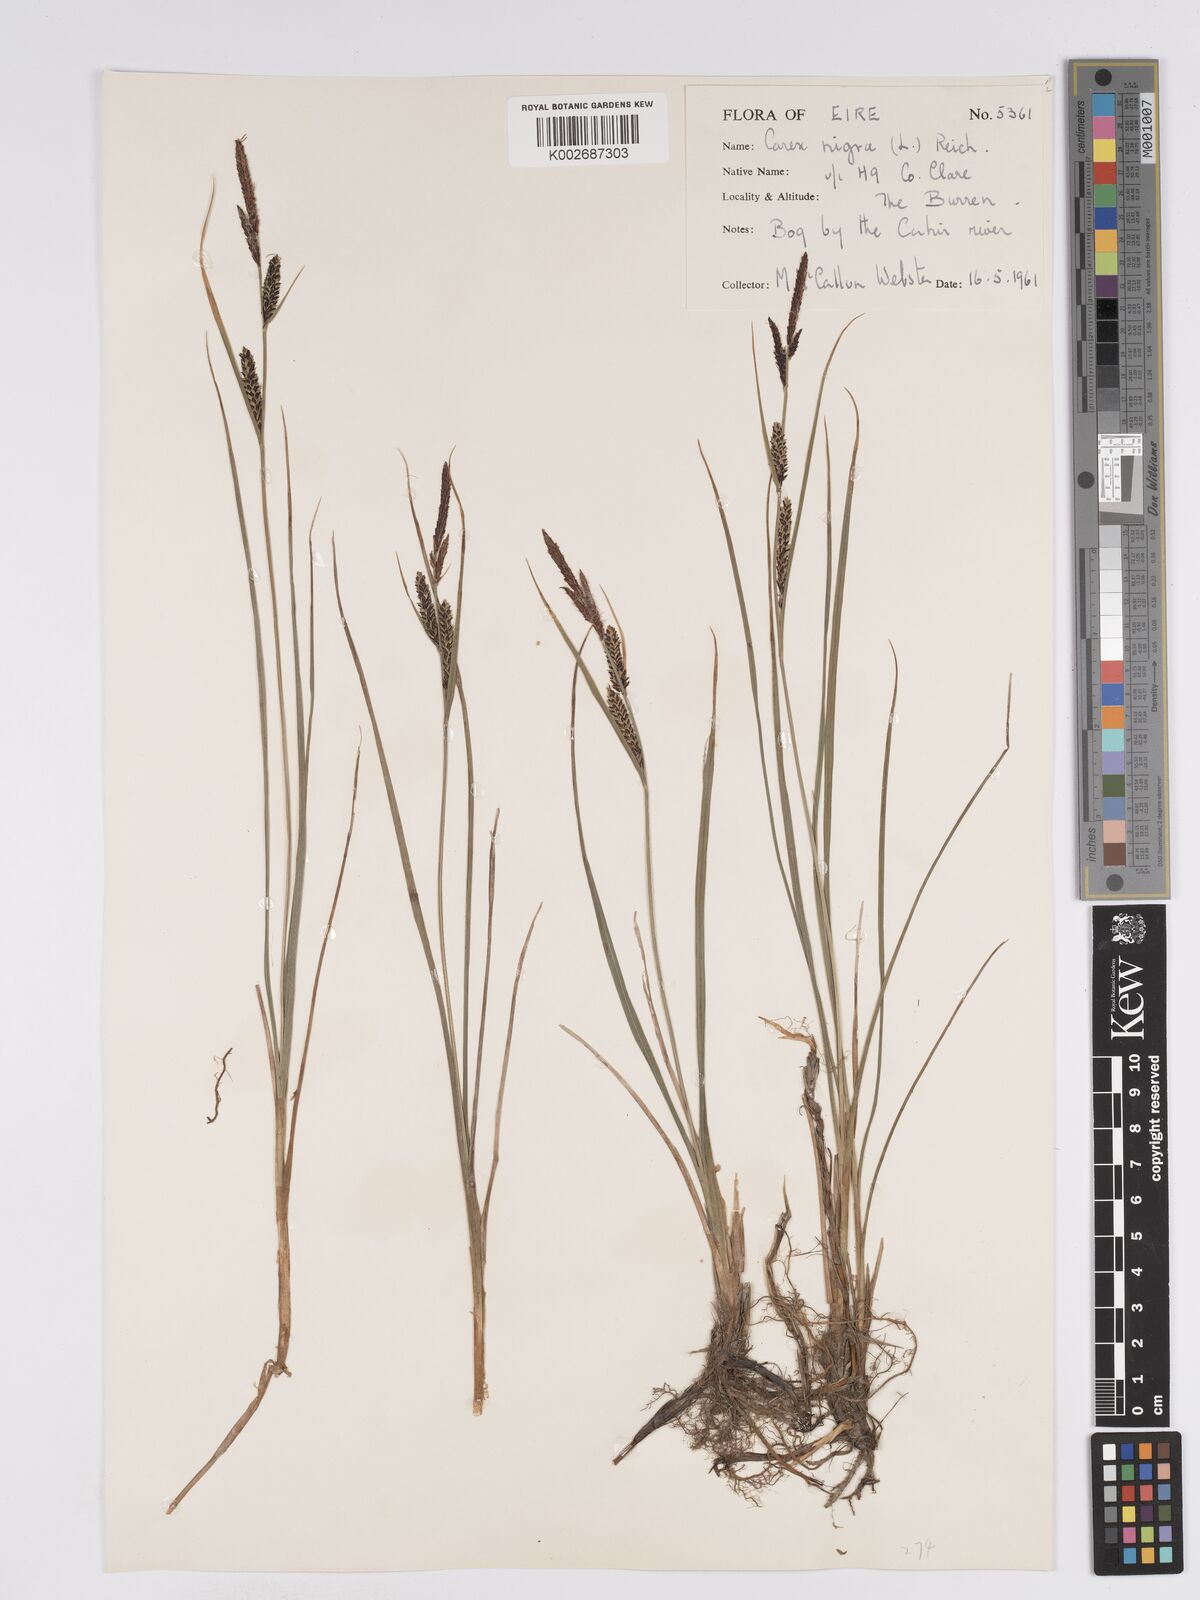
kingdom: Plantae
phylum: Tracheophyta
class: Liliopsida
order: Poales
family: Cyperaceae
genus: Carex
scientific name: Carex nigra
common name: Common sedge
